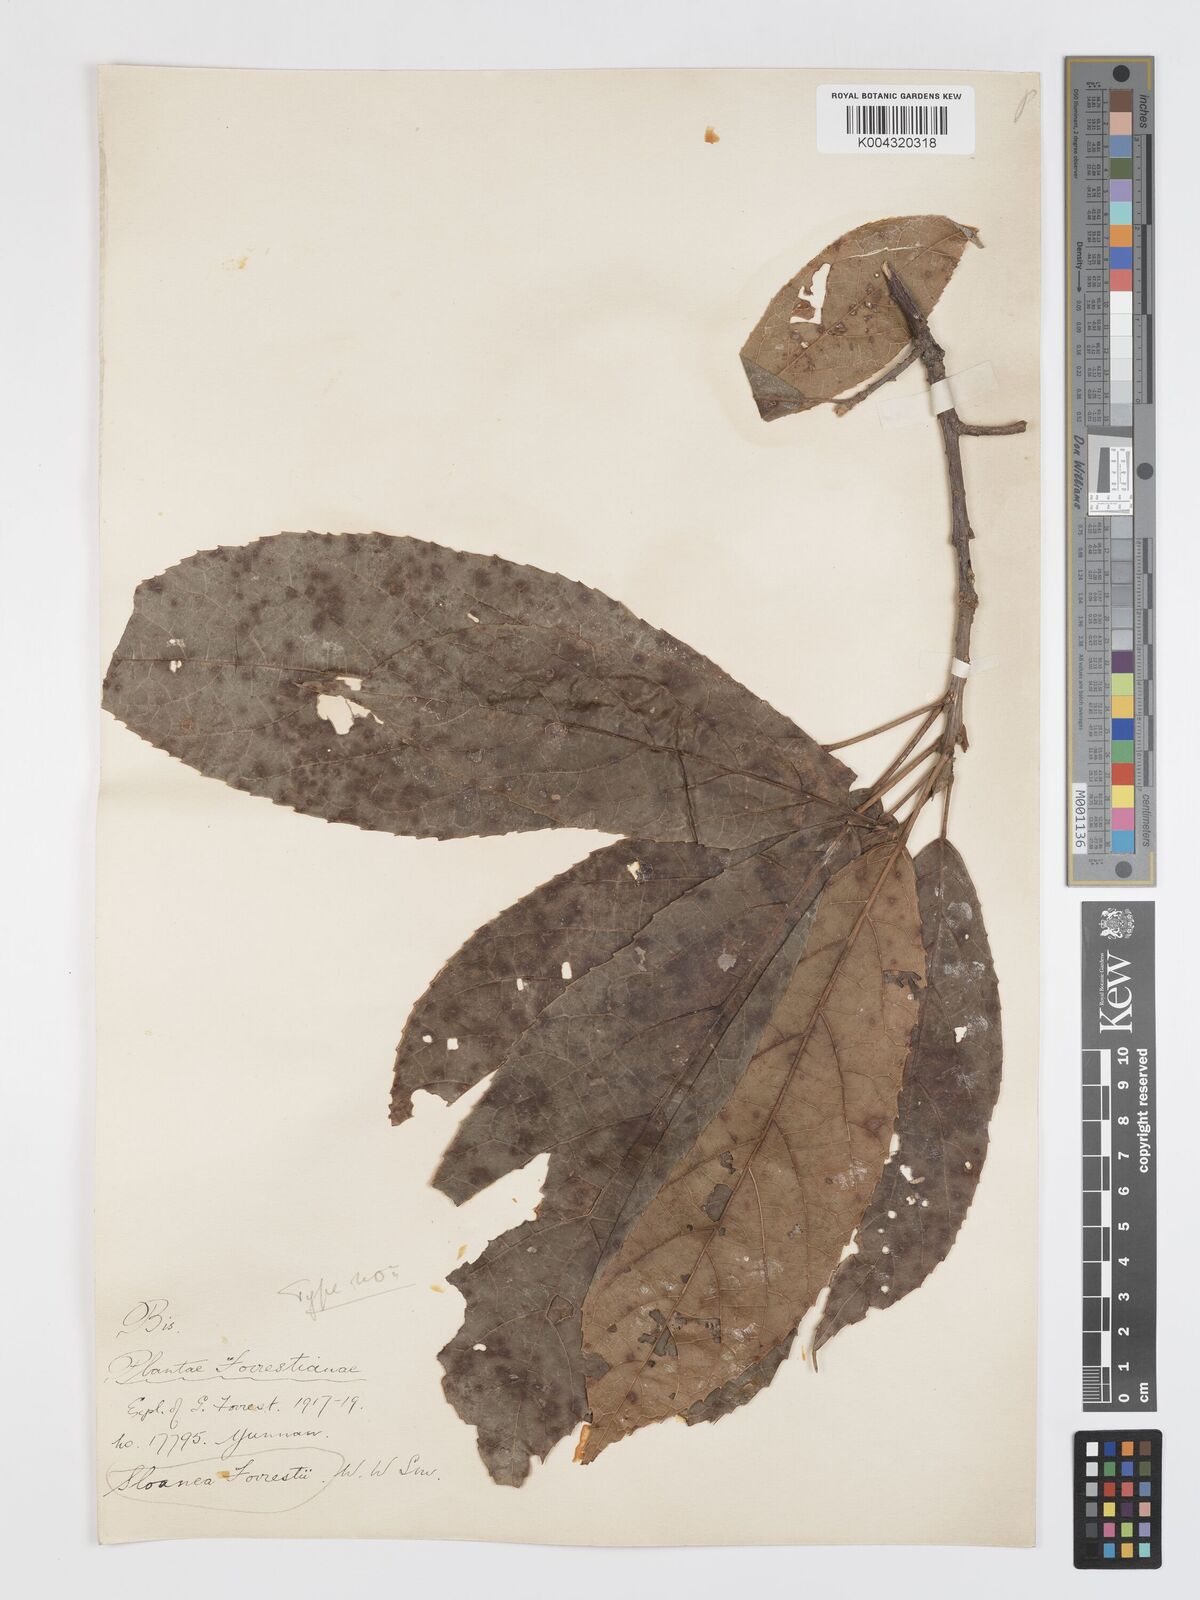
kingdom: Plantae
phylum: Tracheophyta
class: Magnoliopsida
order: Oxalidales
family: Elaeocarpaceae
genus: Sloanea
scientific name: Sloanea sterculiacea
